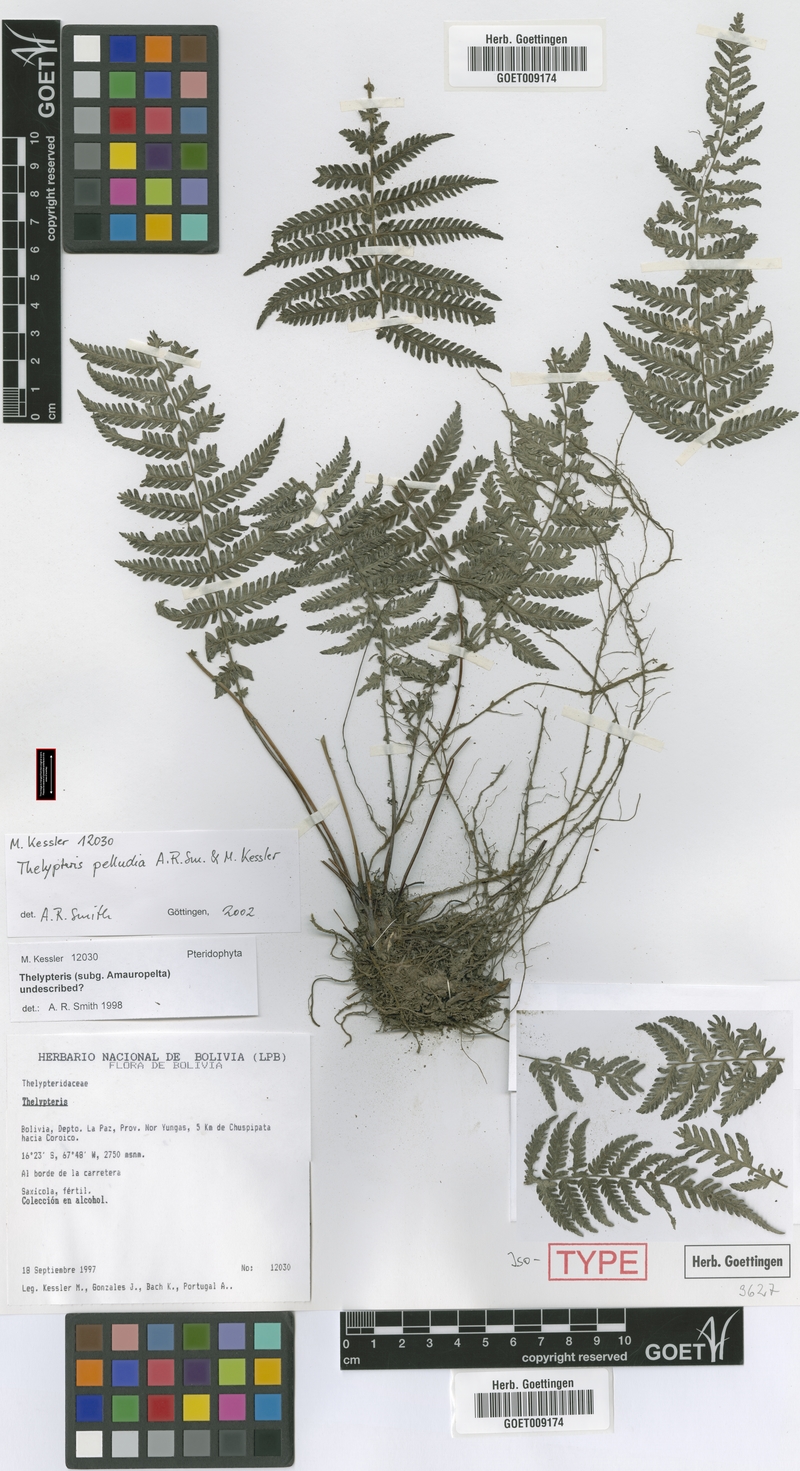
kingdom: Plantae
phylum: Tracheophyta
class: Polypodiopsida
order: Polypodiales
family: Thelypteridaceae
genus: Amauropelta
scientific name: Amauropelta pelludia
